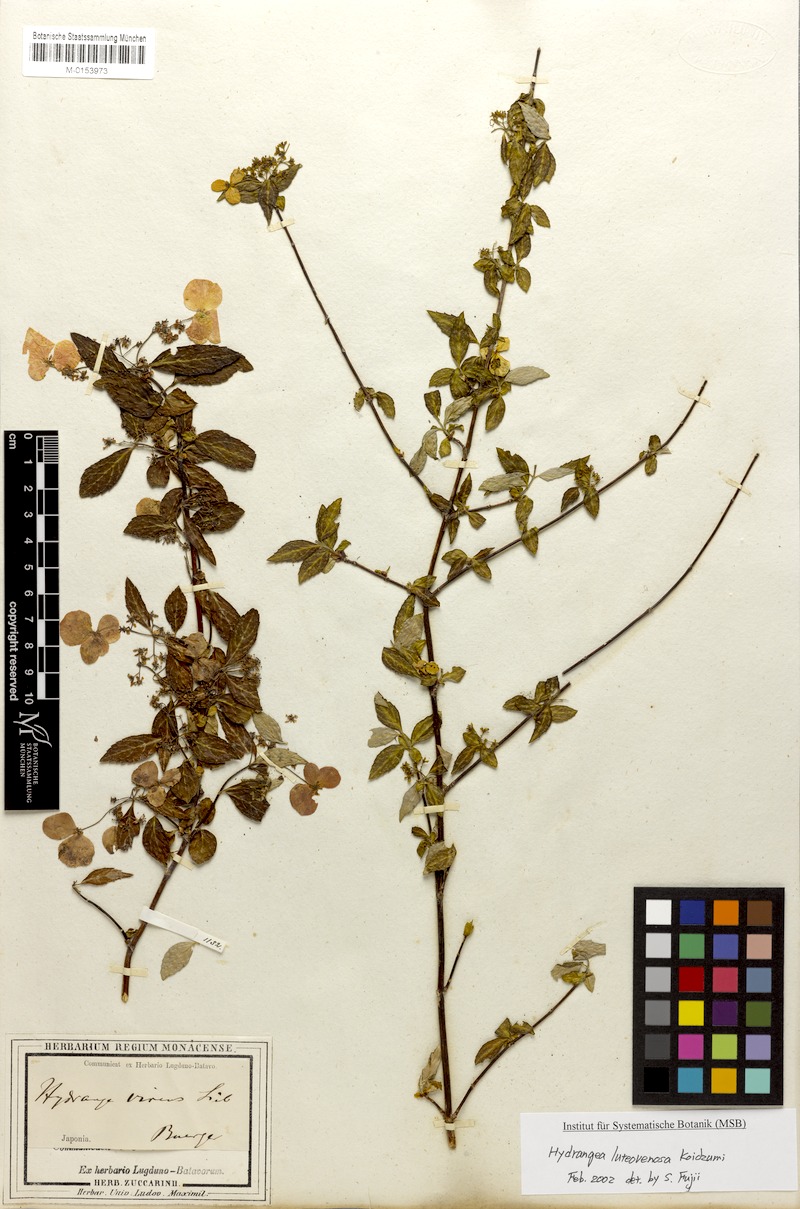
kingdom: Plantae
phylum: Tracheophyta
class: Magnoliopsida
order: Cornales
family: Hydrangeaceae
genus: Hydrangea
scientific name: Hydrangea luteovenosa
